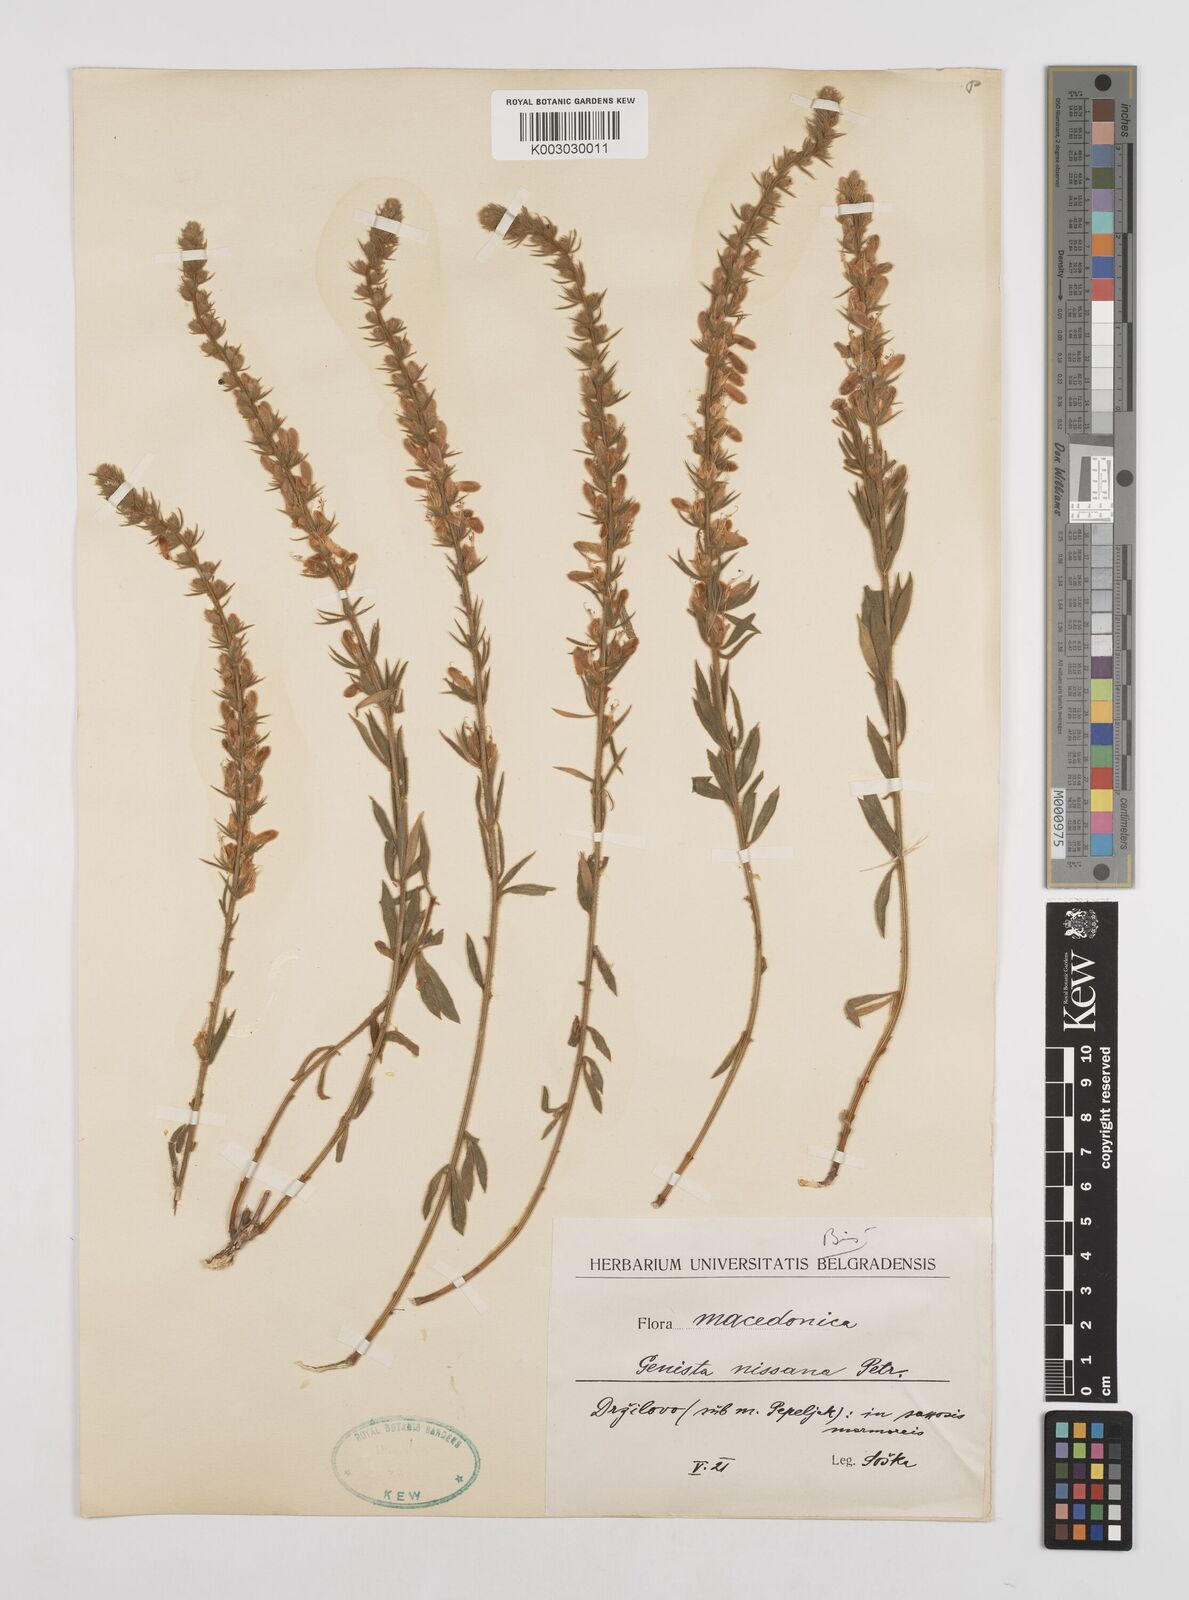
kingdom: Plantae
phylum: Tracheophyta
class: Magnoliopsida
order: Fabales
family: Fabaceae
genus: Genista
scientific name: Genista nissana
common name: Macedonian broom
